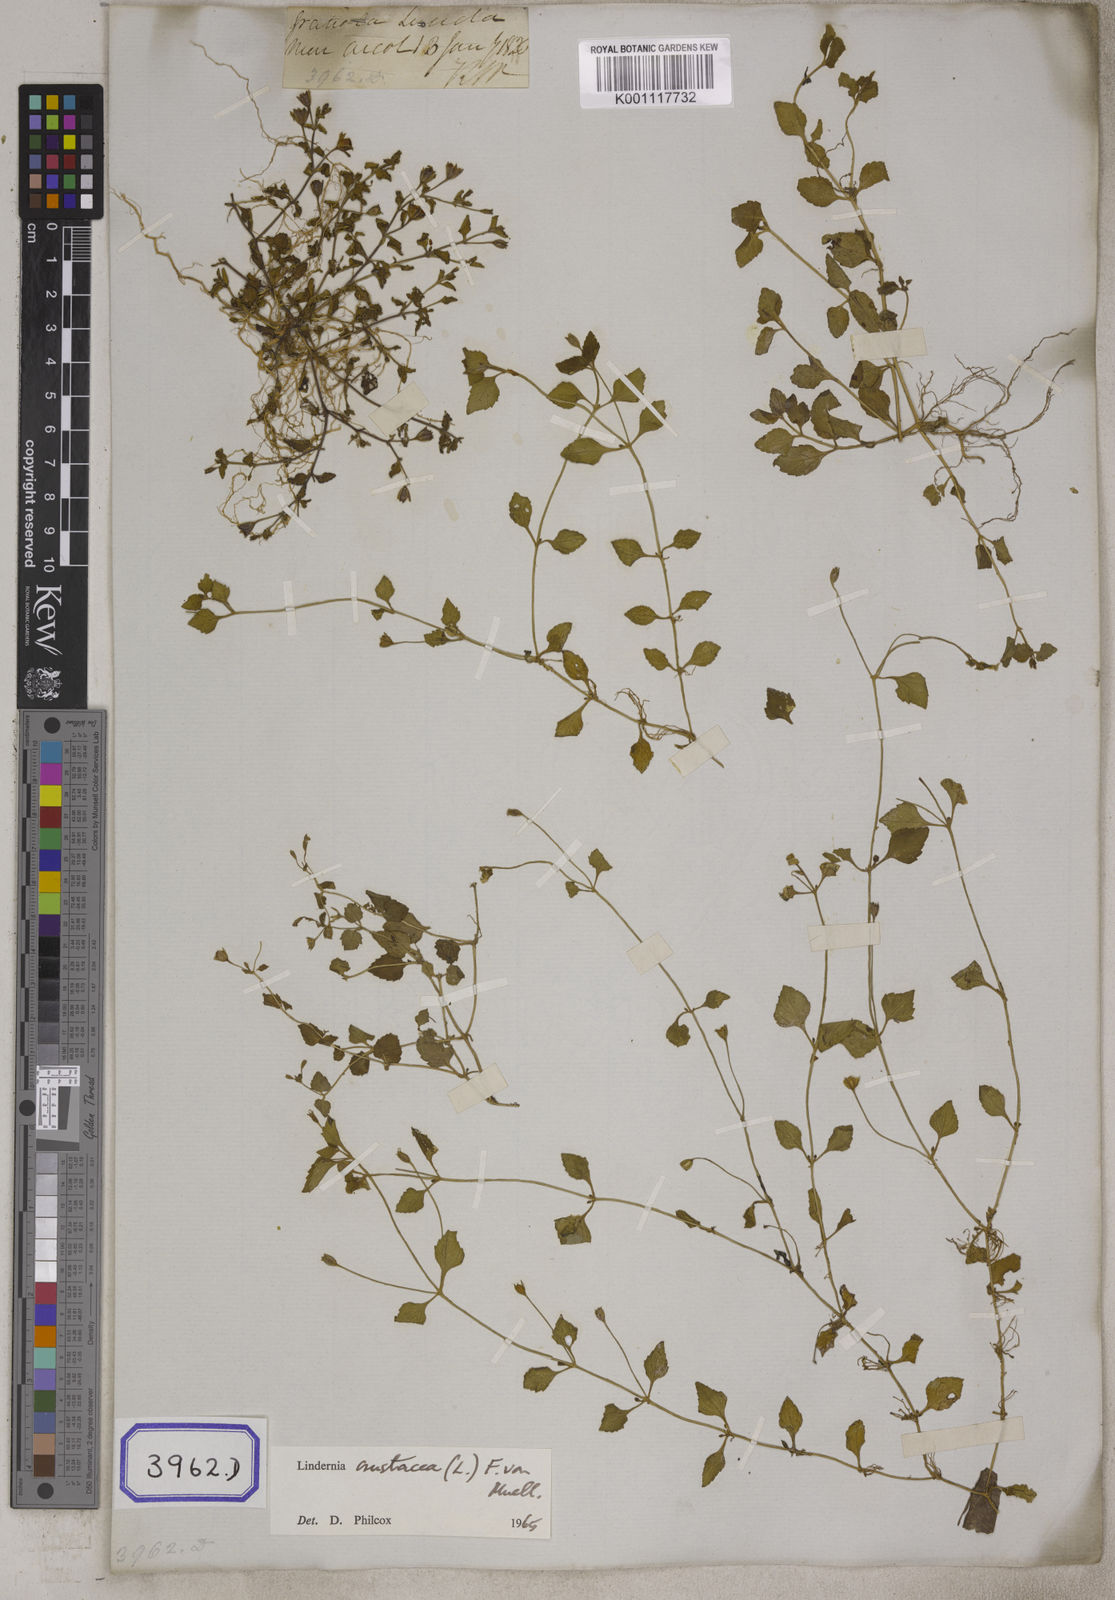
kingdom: Plantae
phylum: Tracheophyta
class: Magnoliopsida
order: Lamiales
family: Linderniaceae
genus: Torenia
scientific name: Torenia crustacea
